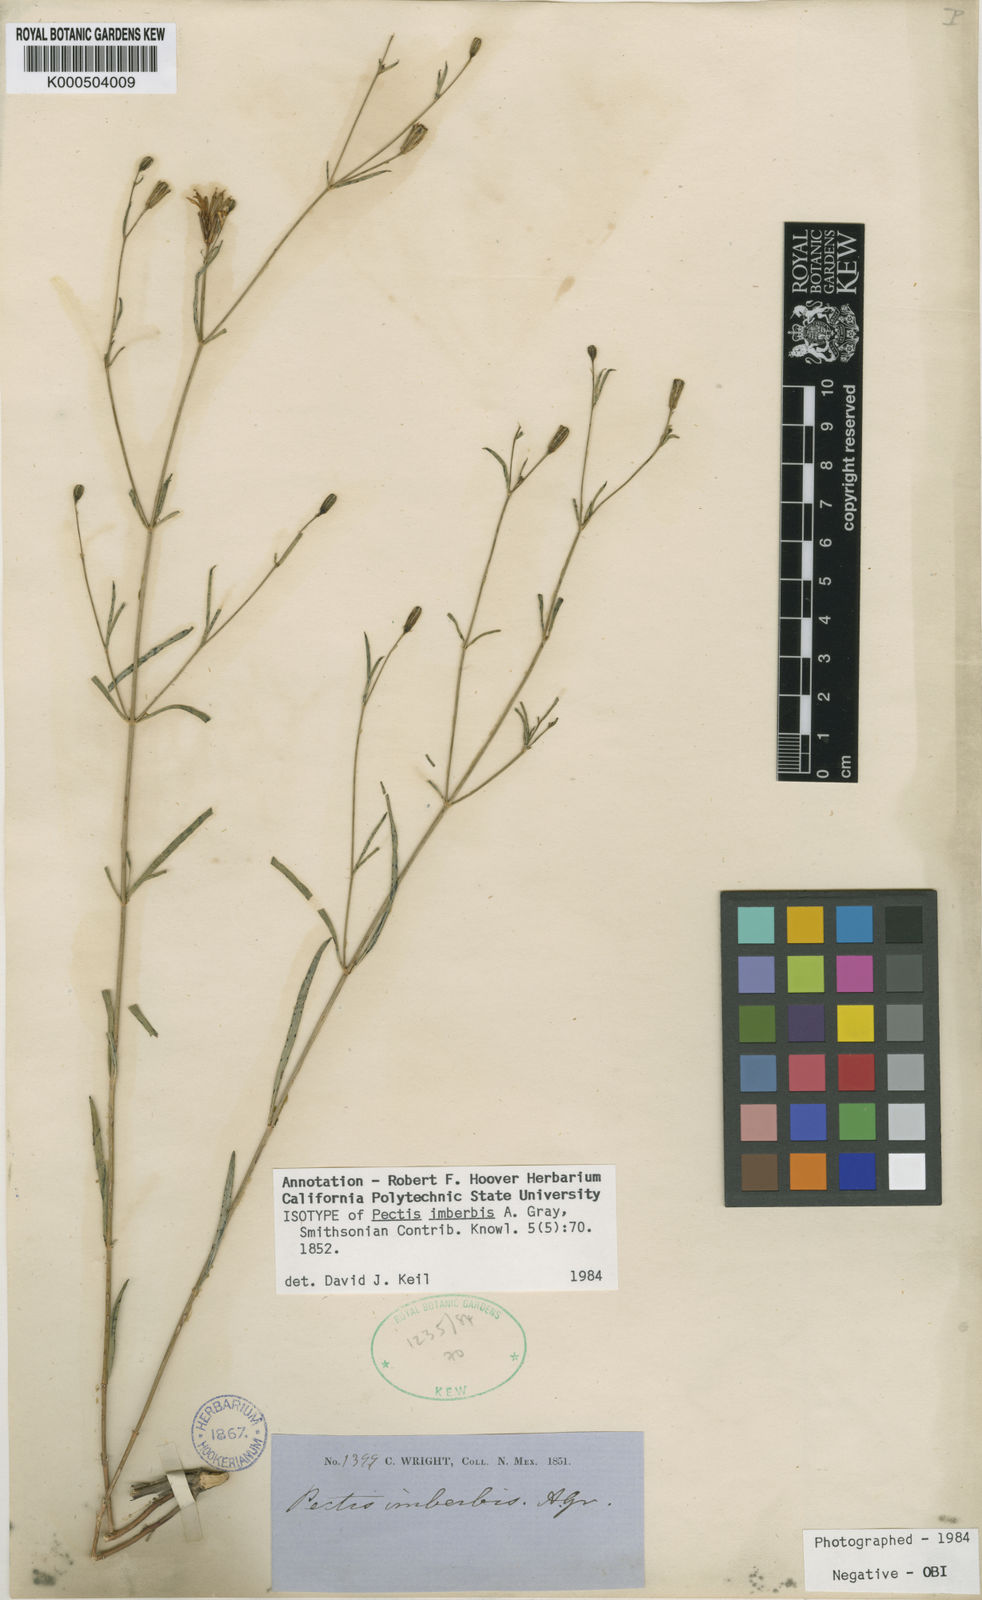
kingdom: Plantae
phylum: Tracheophyta
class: Magnoliopsida
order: Asterales
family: Asteraceae
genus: Pectis
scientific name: Pectis imberbis
